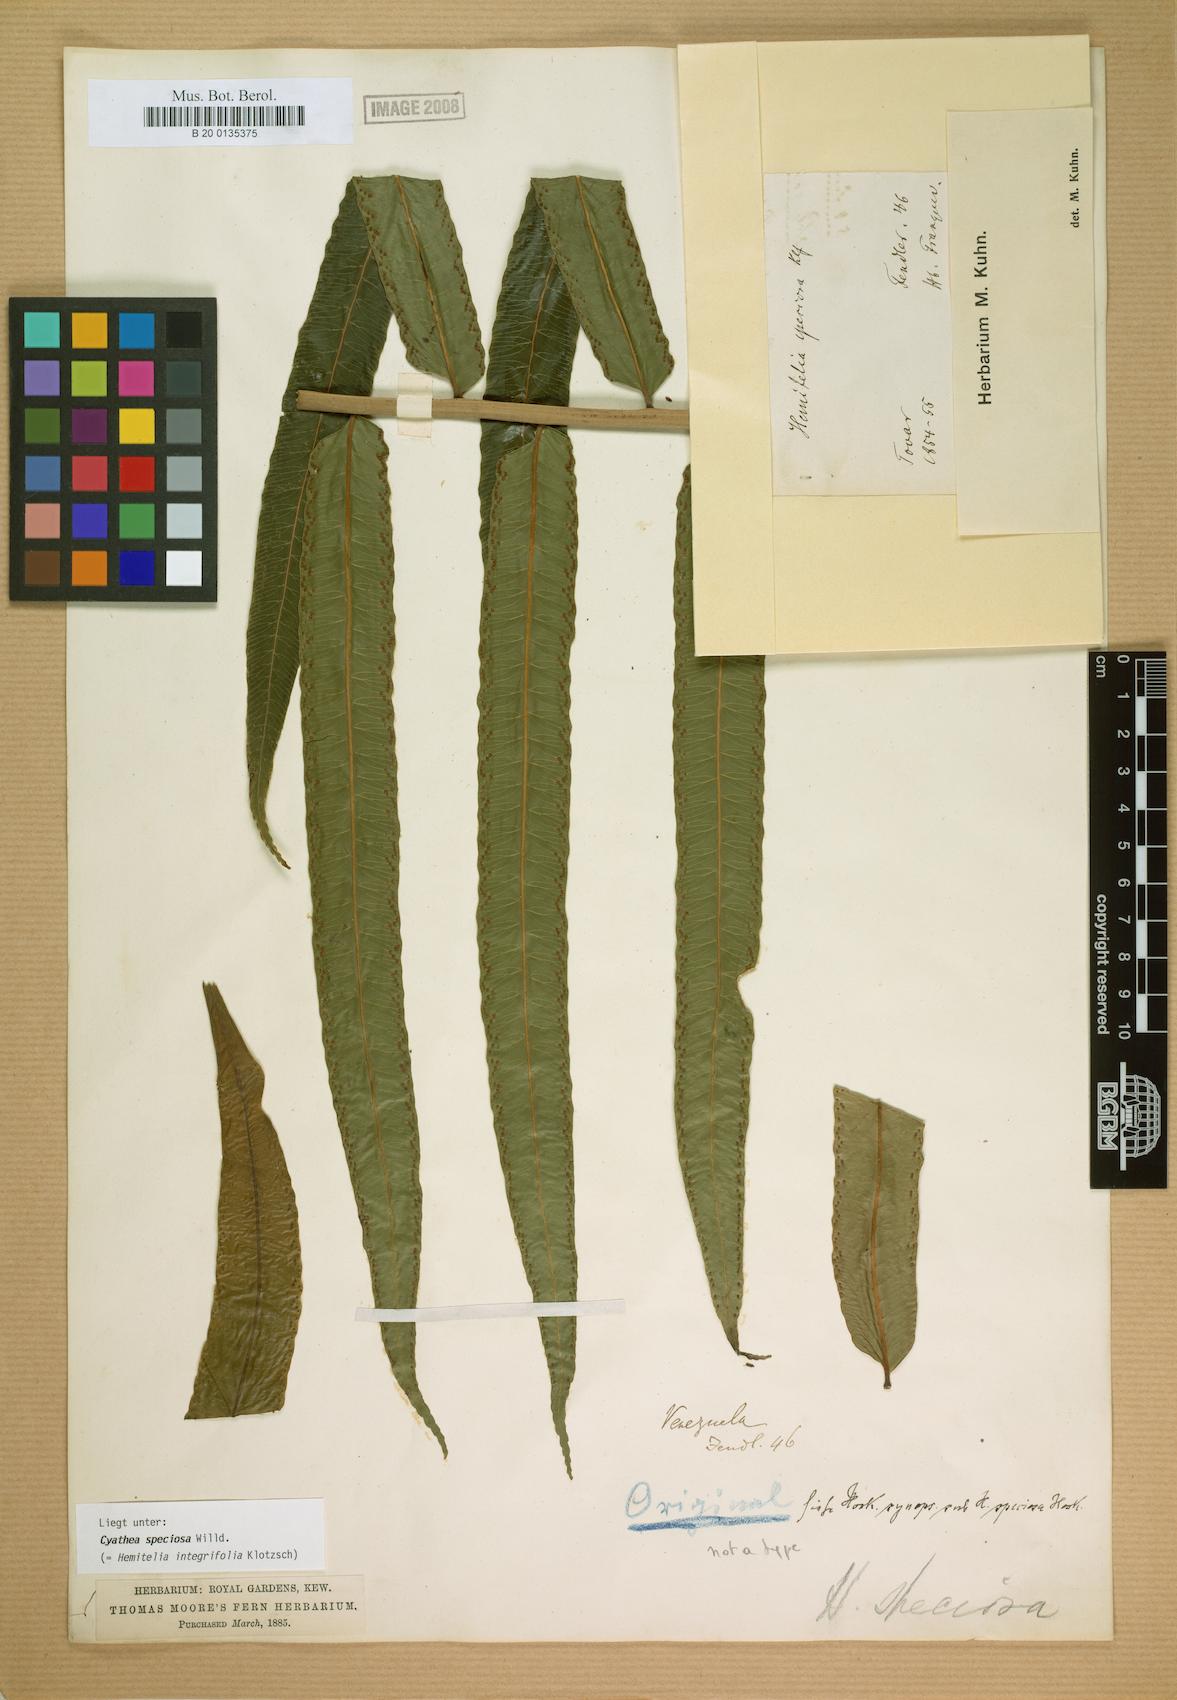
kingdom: Plantae
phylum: Tracheophyta
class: Polypodiopsida
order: Cyatheales
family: Cyatheaceae
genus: Cyathea
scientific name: Cyathea speciosa
